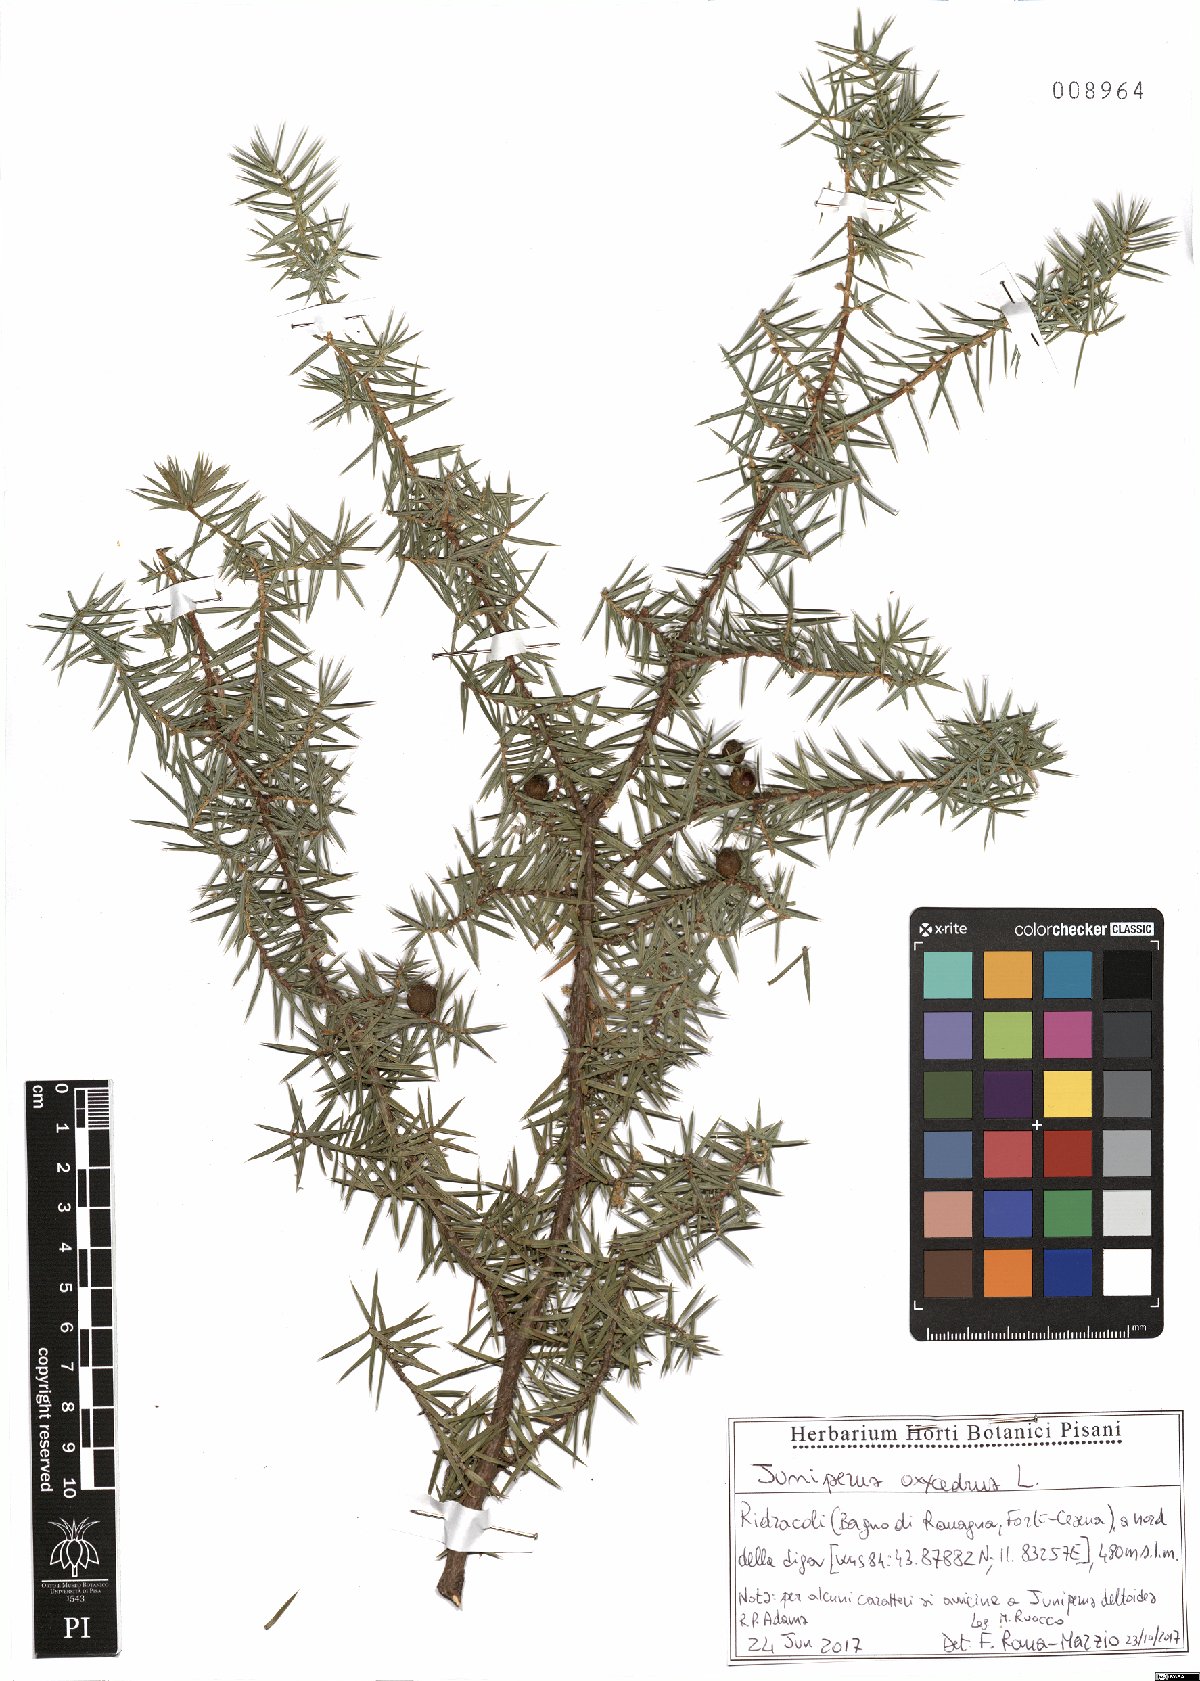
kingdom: Plantae
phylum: Tracheophyta
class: Pinopsida
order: Pinales
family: Cupressaceae
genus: Juniperus
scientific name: Juniperus oxycedrus
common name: Prickly juniper
